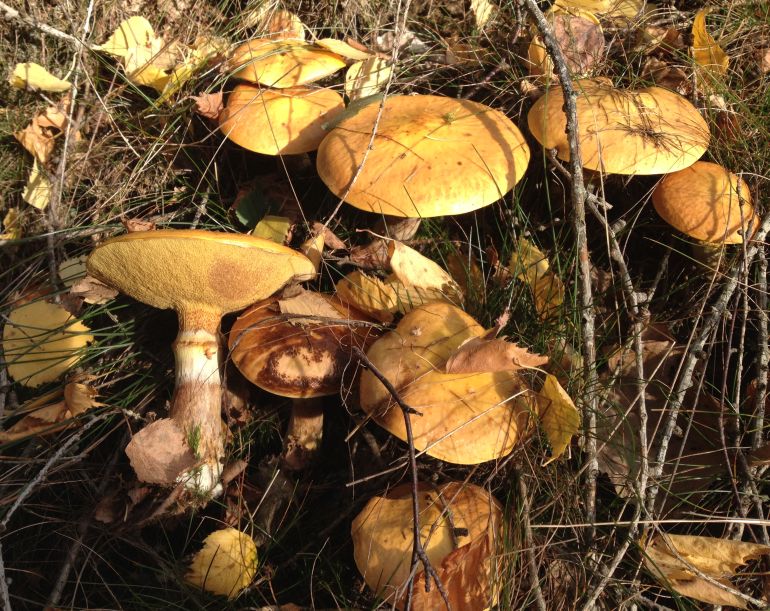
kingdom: Fungi
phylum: Basidiomycota
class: Agaricomycetes
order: Boletales
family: Suillaceae
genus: Suillus
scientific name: Suillus grevillei
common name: lærke-slimrørhat
